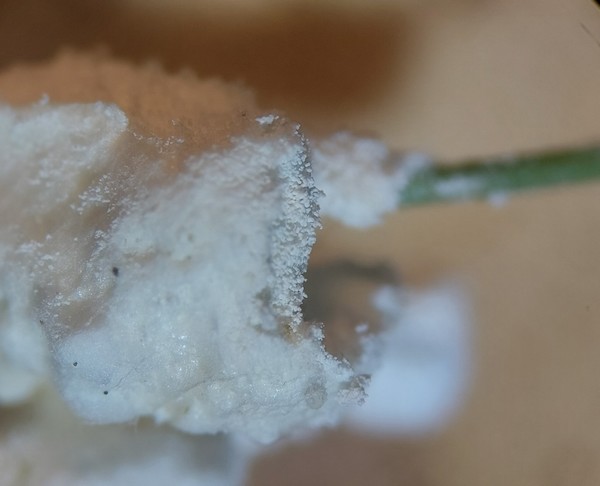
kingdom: Fungi
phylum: Ascomycota
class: Sordariomycetes
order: Hypocreales
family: Cordycipitaceae
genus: Beauveria
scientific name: Beauveria bassiana
